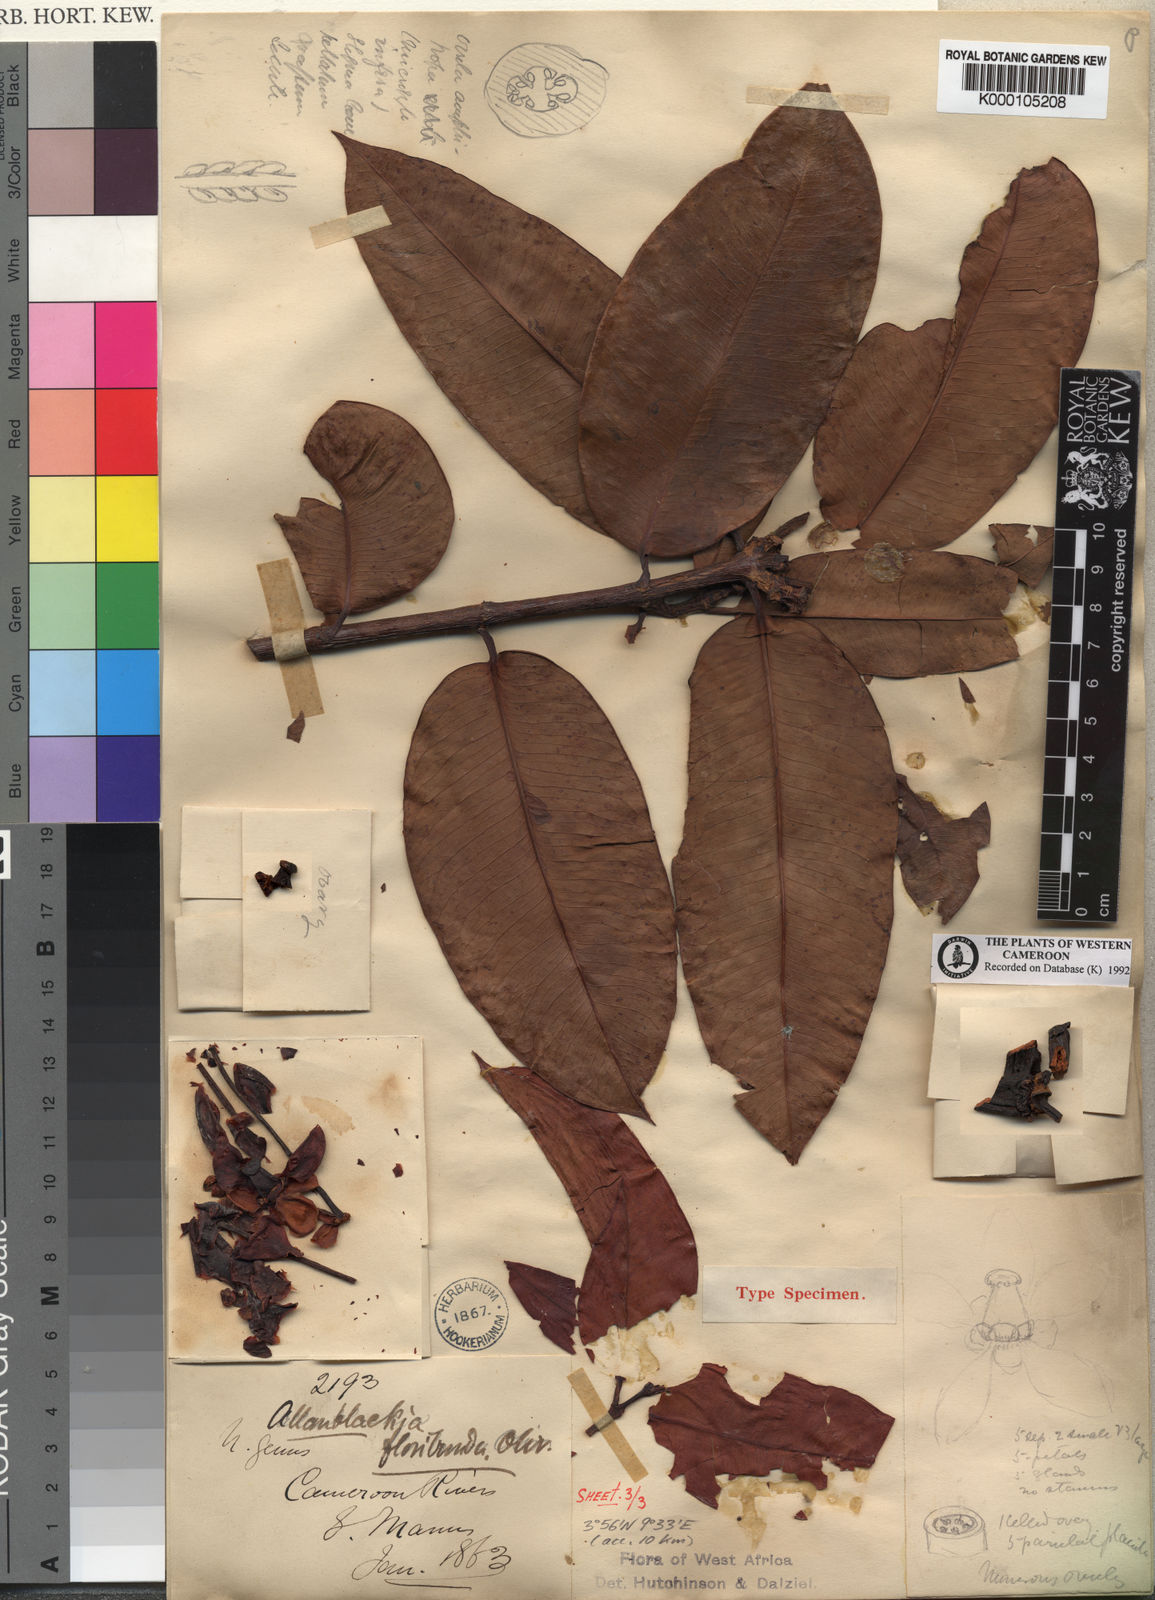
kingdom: Plantae
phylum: Tracheophyta
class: Magnoliopsida
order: Malpighiales
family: Clusiaceae
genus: Allanblackia
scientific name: Allanblackia floribunda
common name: Tallow tree
